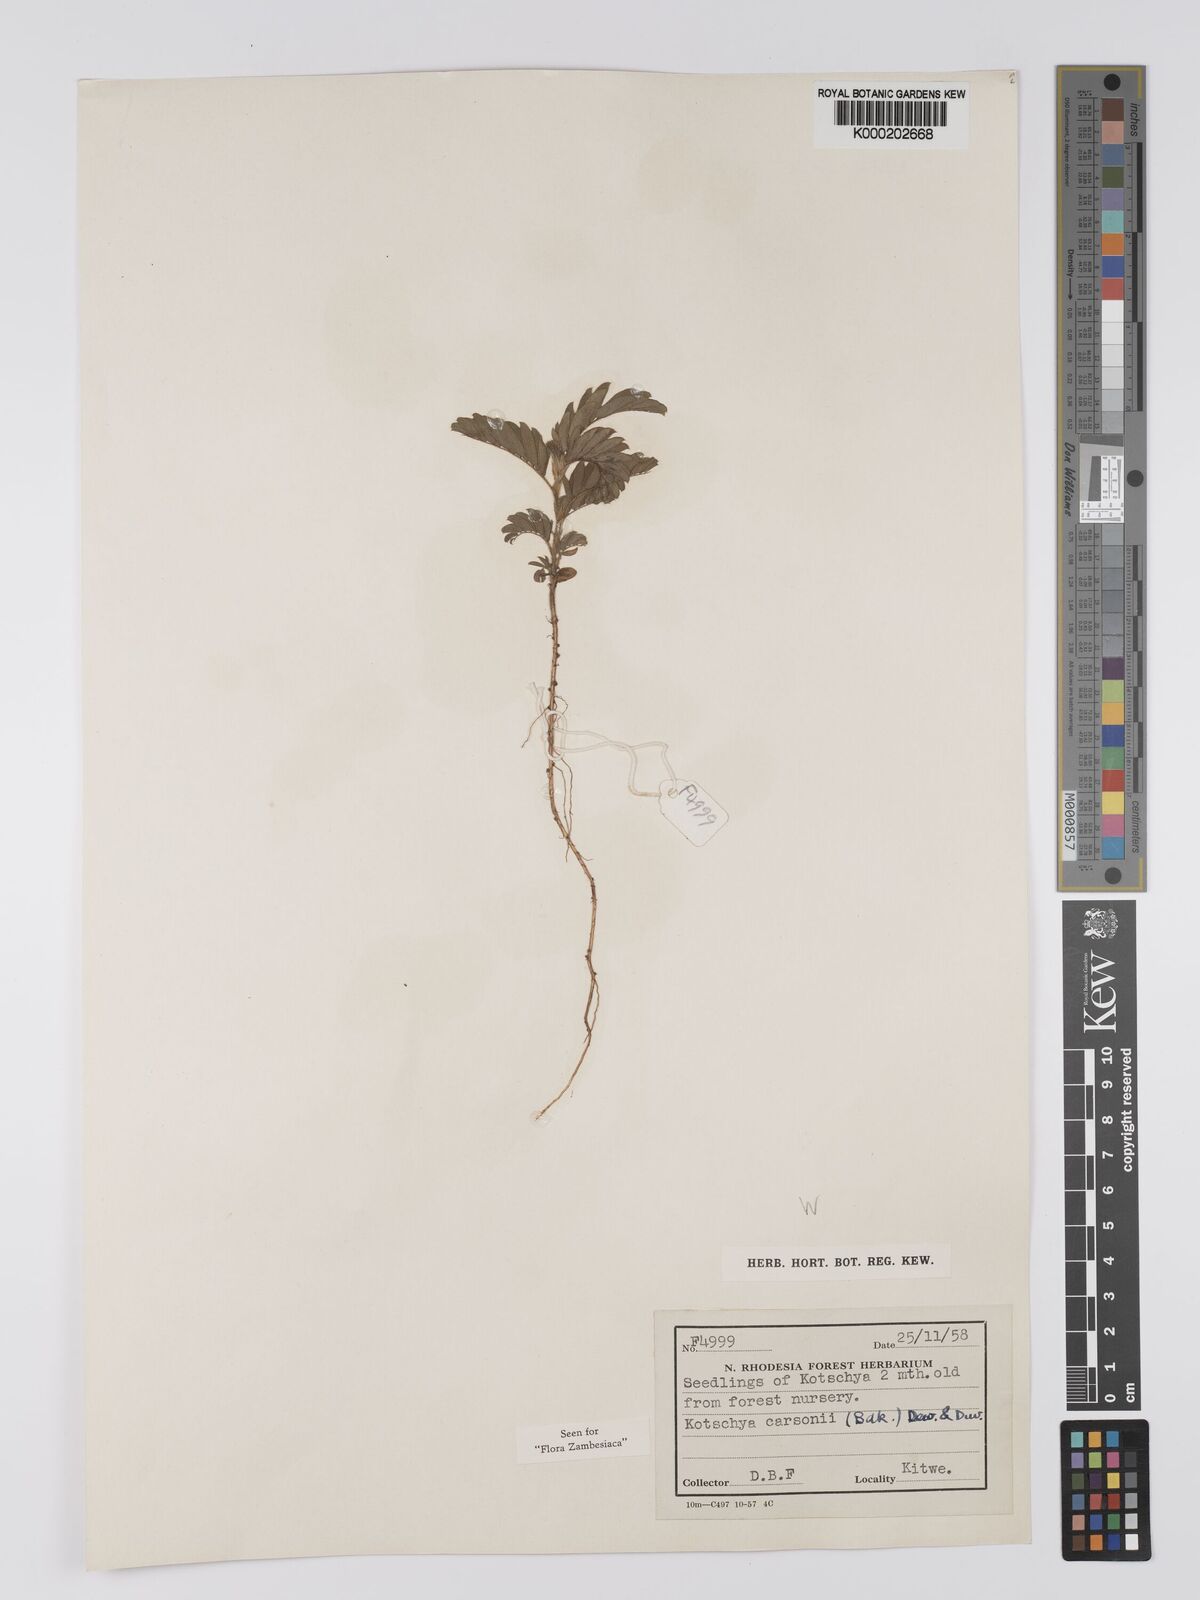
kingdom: Plantae
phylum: Tracheophyta
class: Magnoliopsida
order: Fabales
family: Fabaceae
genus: Kotschya
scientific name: Kotschya carsonii
